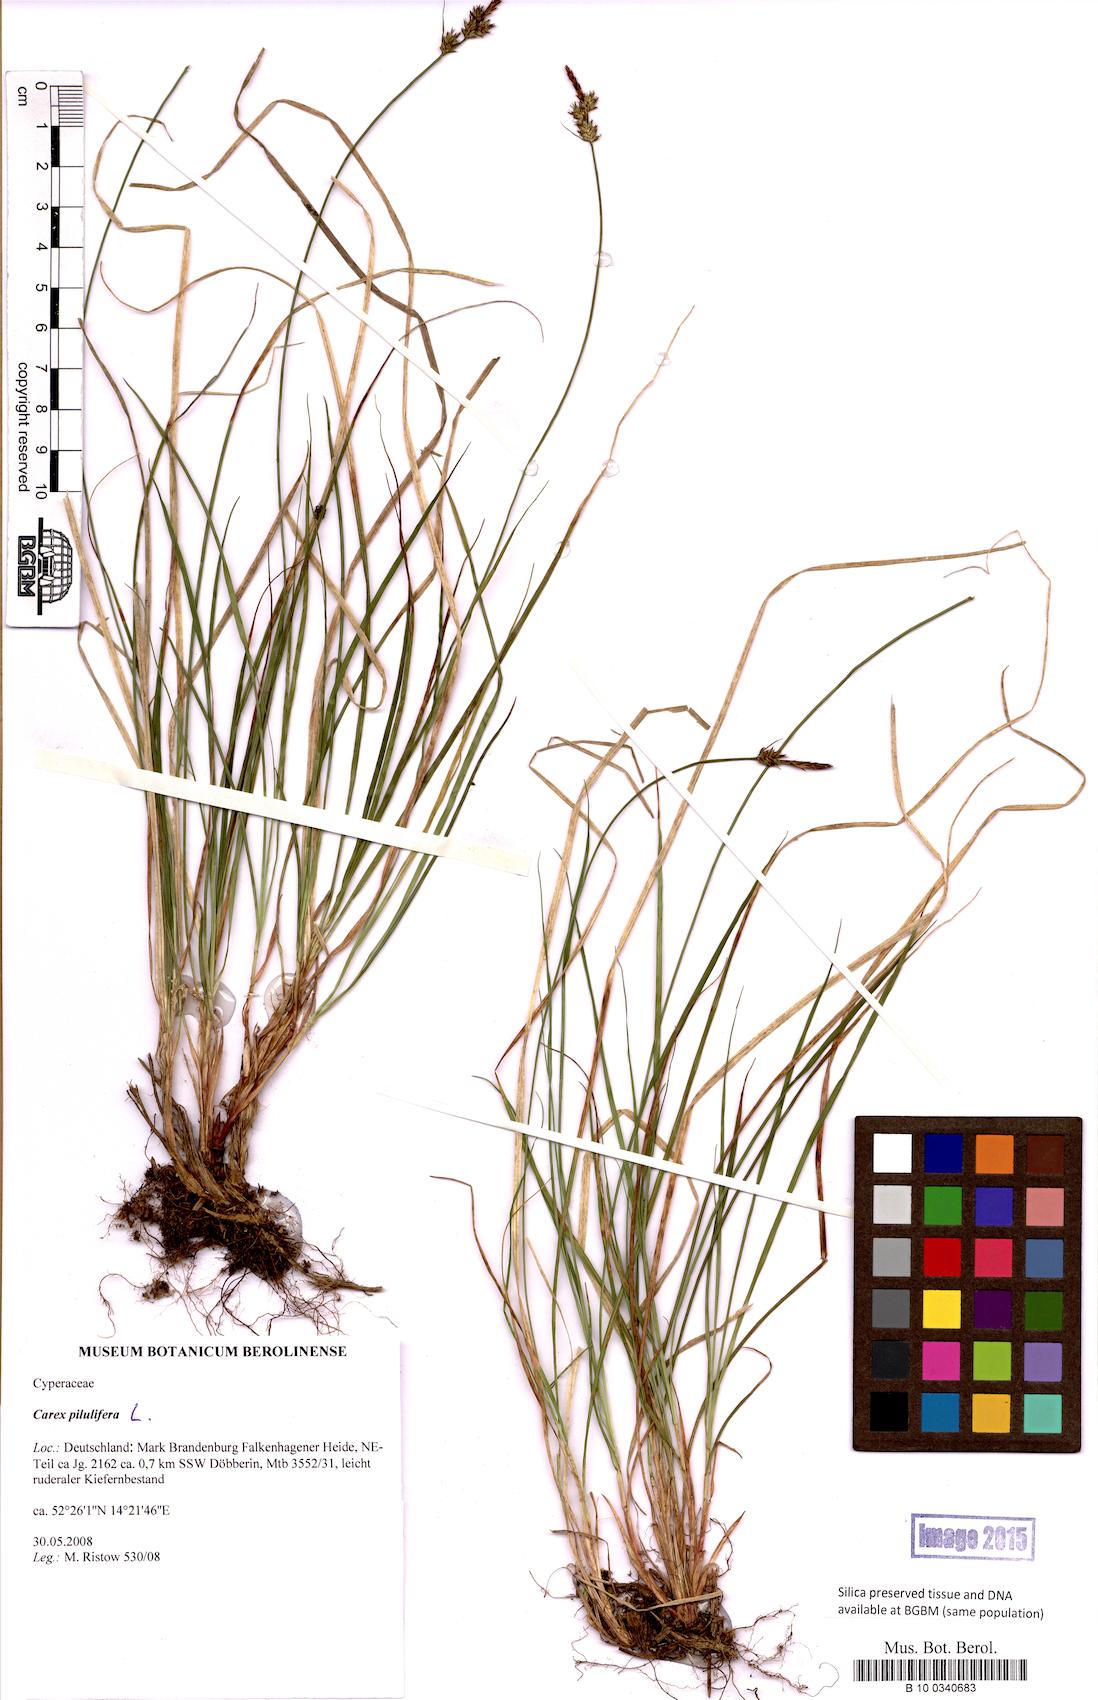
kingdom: Plantae
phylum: Tracheophyta
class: Liliopsida
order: Poales
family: Cyperaceae
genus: Carex
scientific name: Carex pilulifera
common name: Pill sedge
